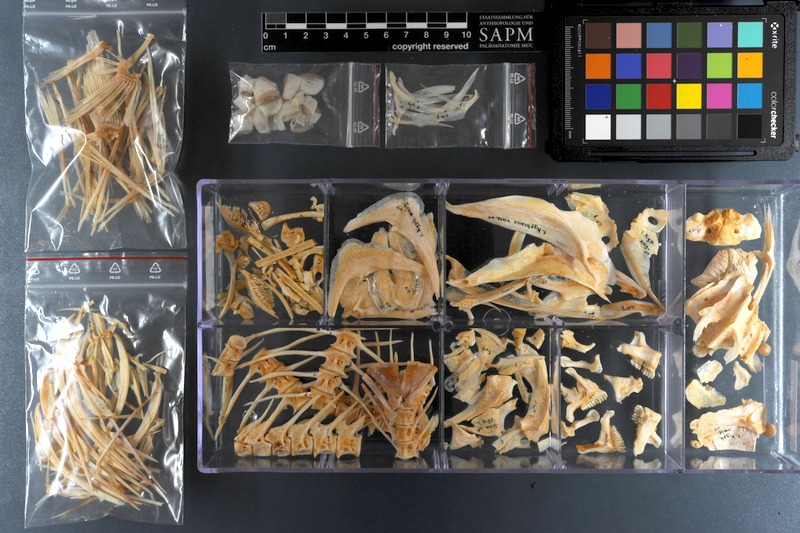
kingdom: Animalia
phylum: Chordata
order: Perciformes
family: Kyphosidae
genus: Kyphosus
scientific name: Kyphosus vaigiensis
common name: Brassy chub
